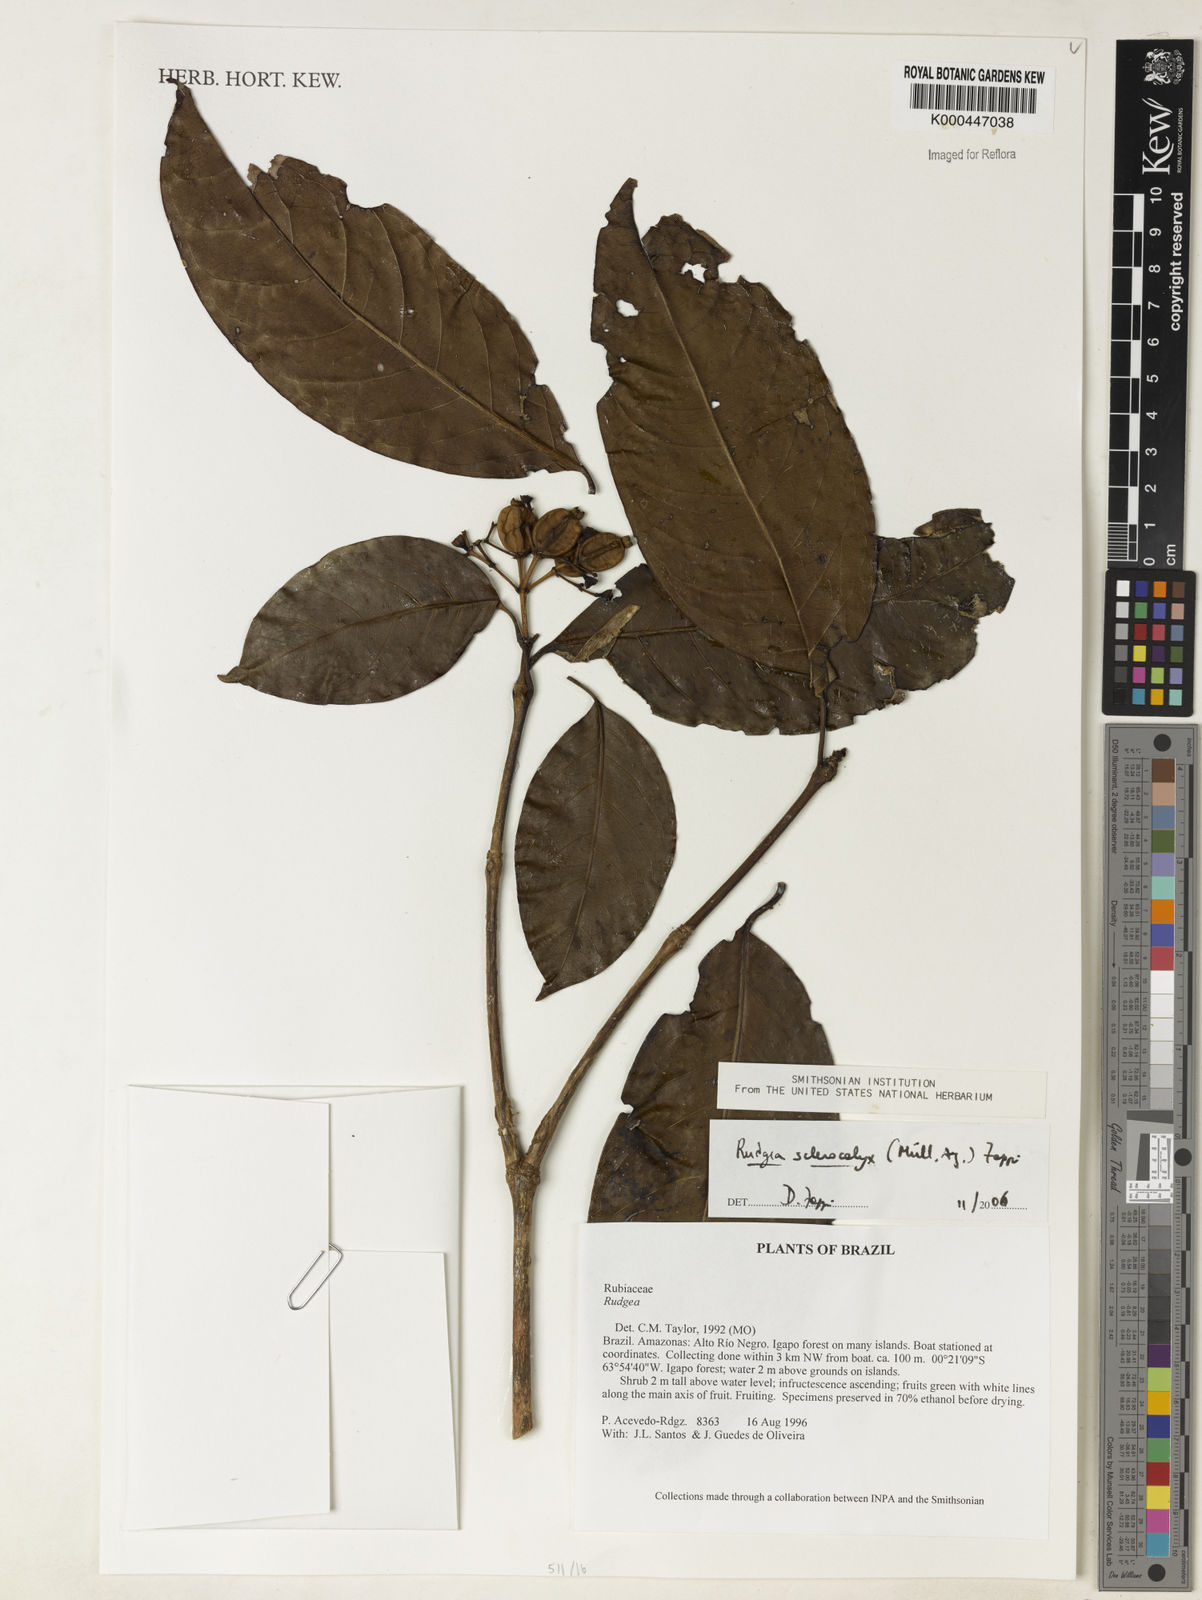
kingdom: Plantae
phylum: Tracheophyta
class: Magnoliopsida
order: Gentianales
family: Rubiaceae
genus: Rudgea
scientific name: Rudgea sclerocalyx
